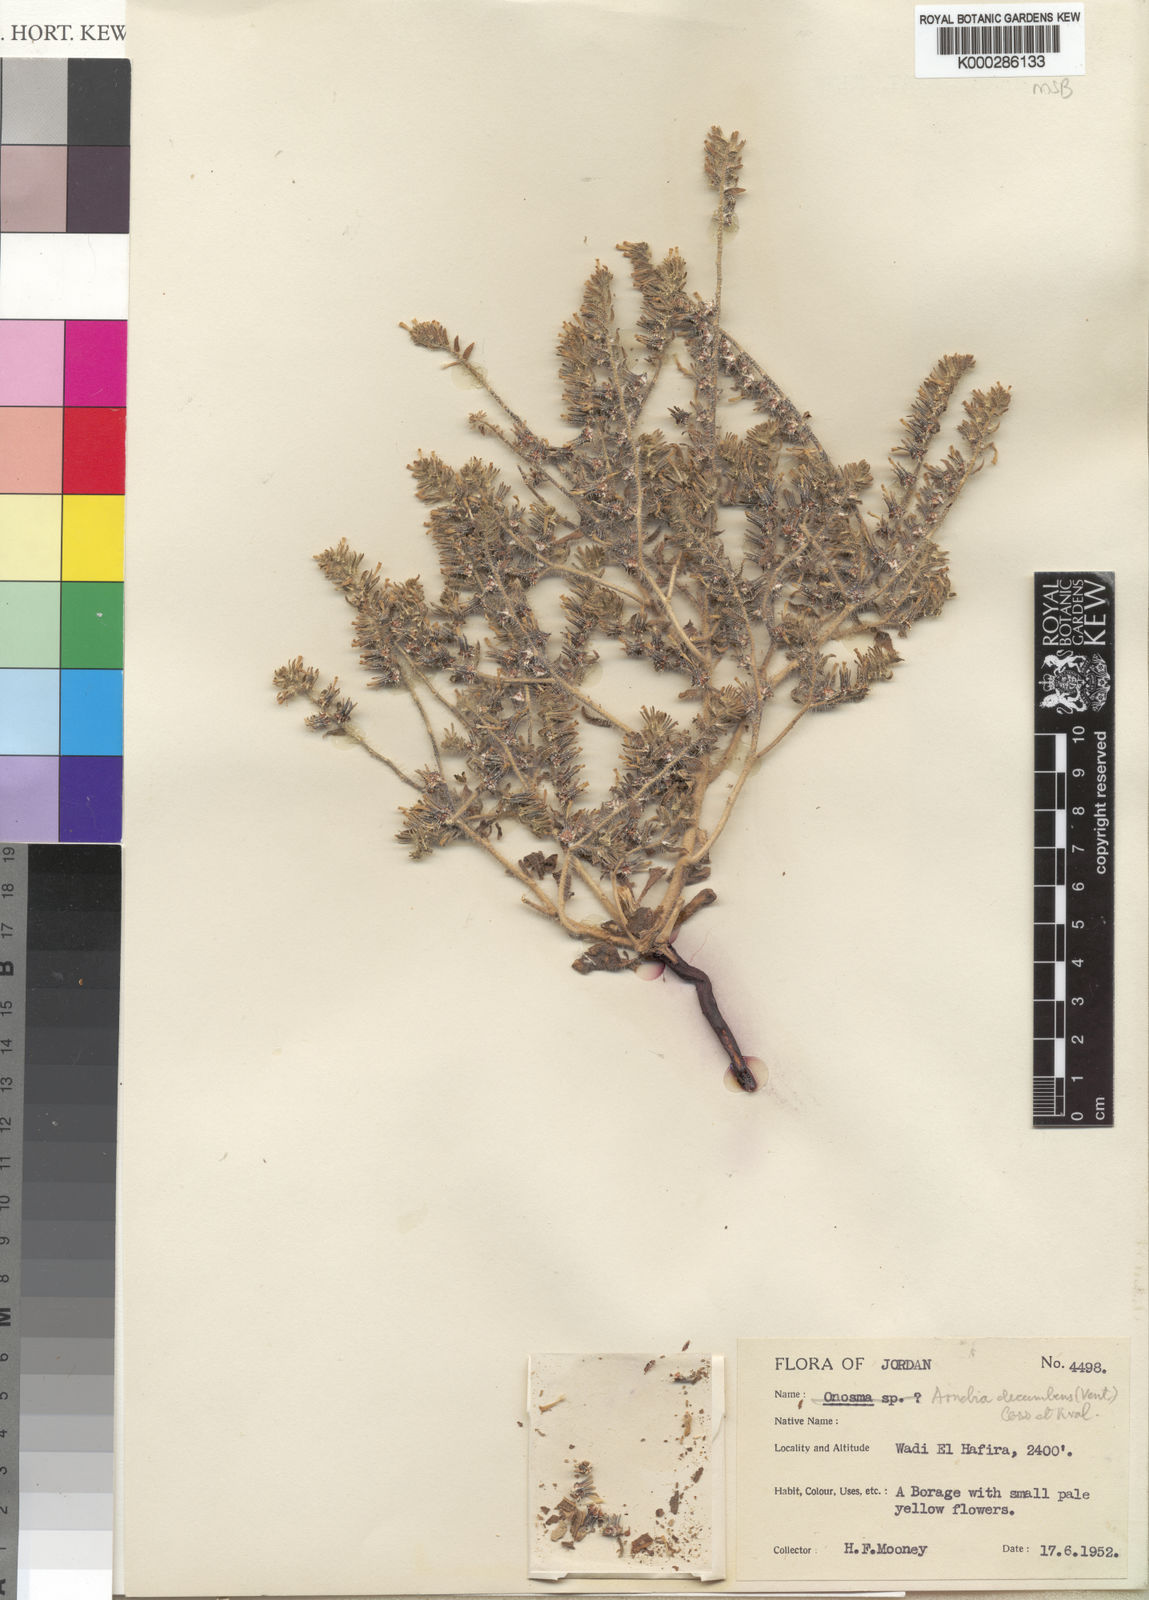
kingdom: Plantae
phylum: Tracheophyta
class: Magnoliopsida
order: Boraginales
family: Boraginaceae
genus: Arnebia
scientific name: Arnebia decumbens
